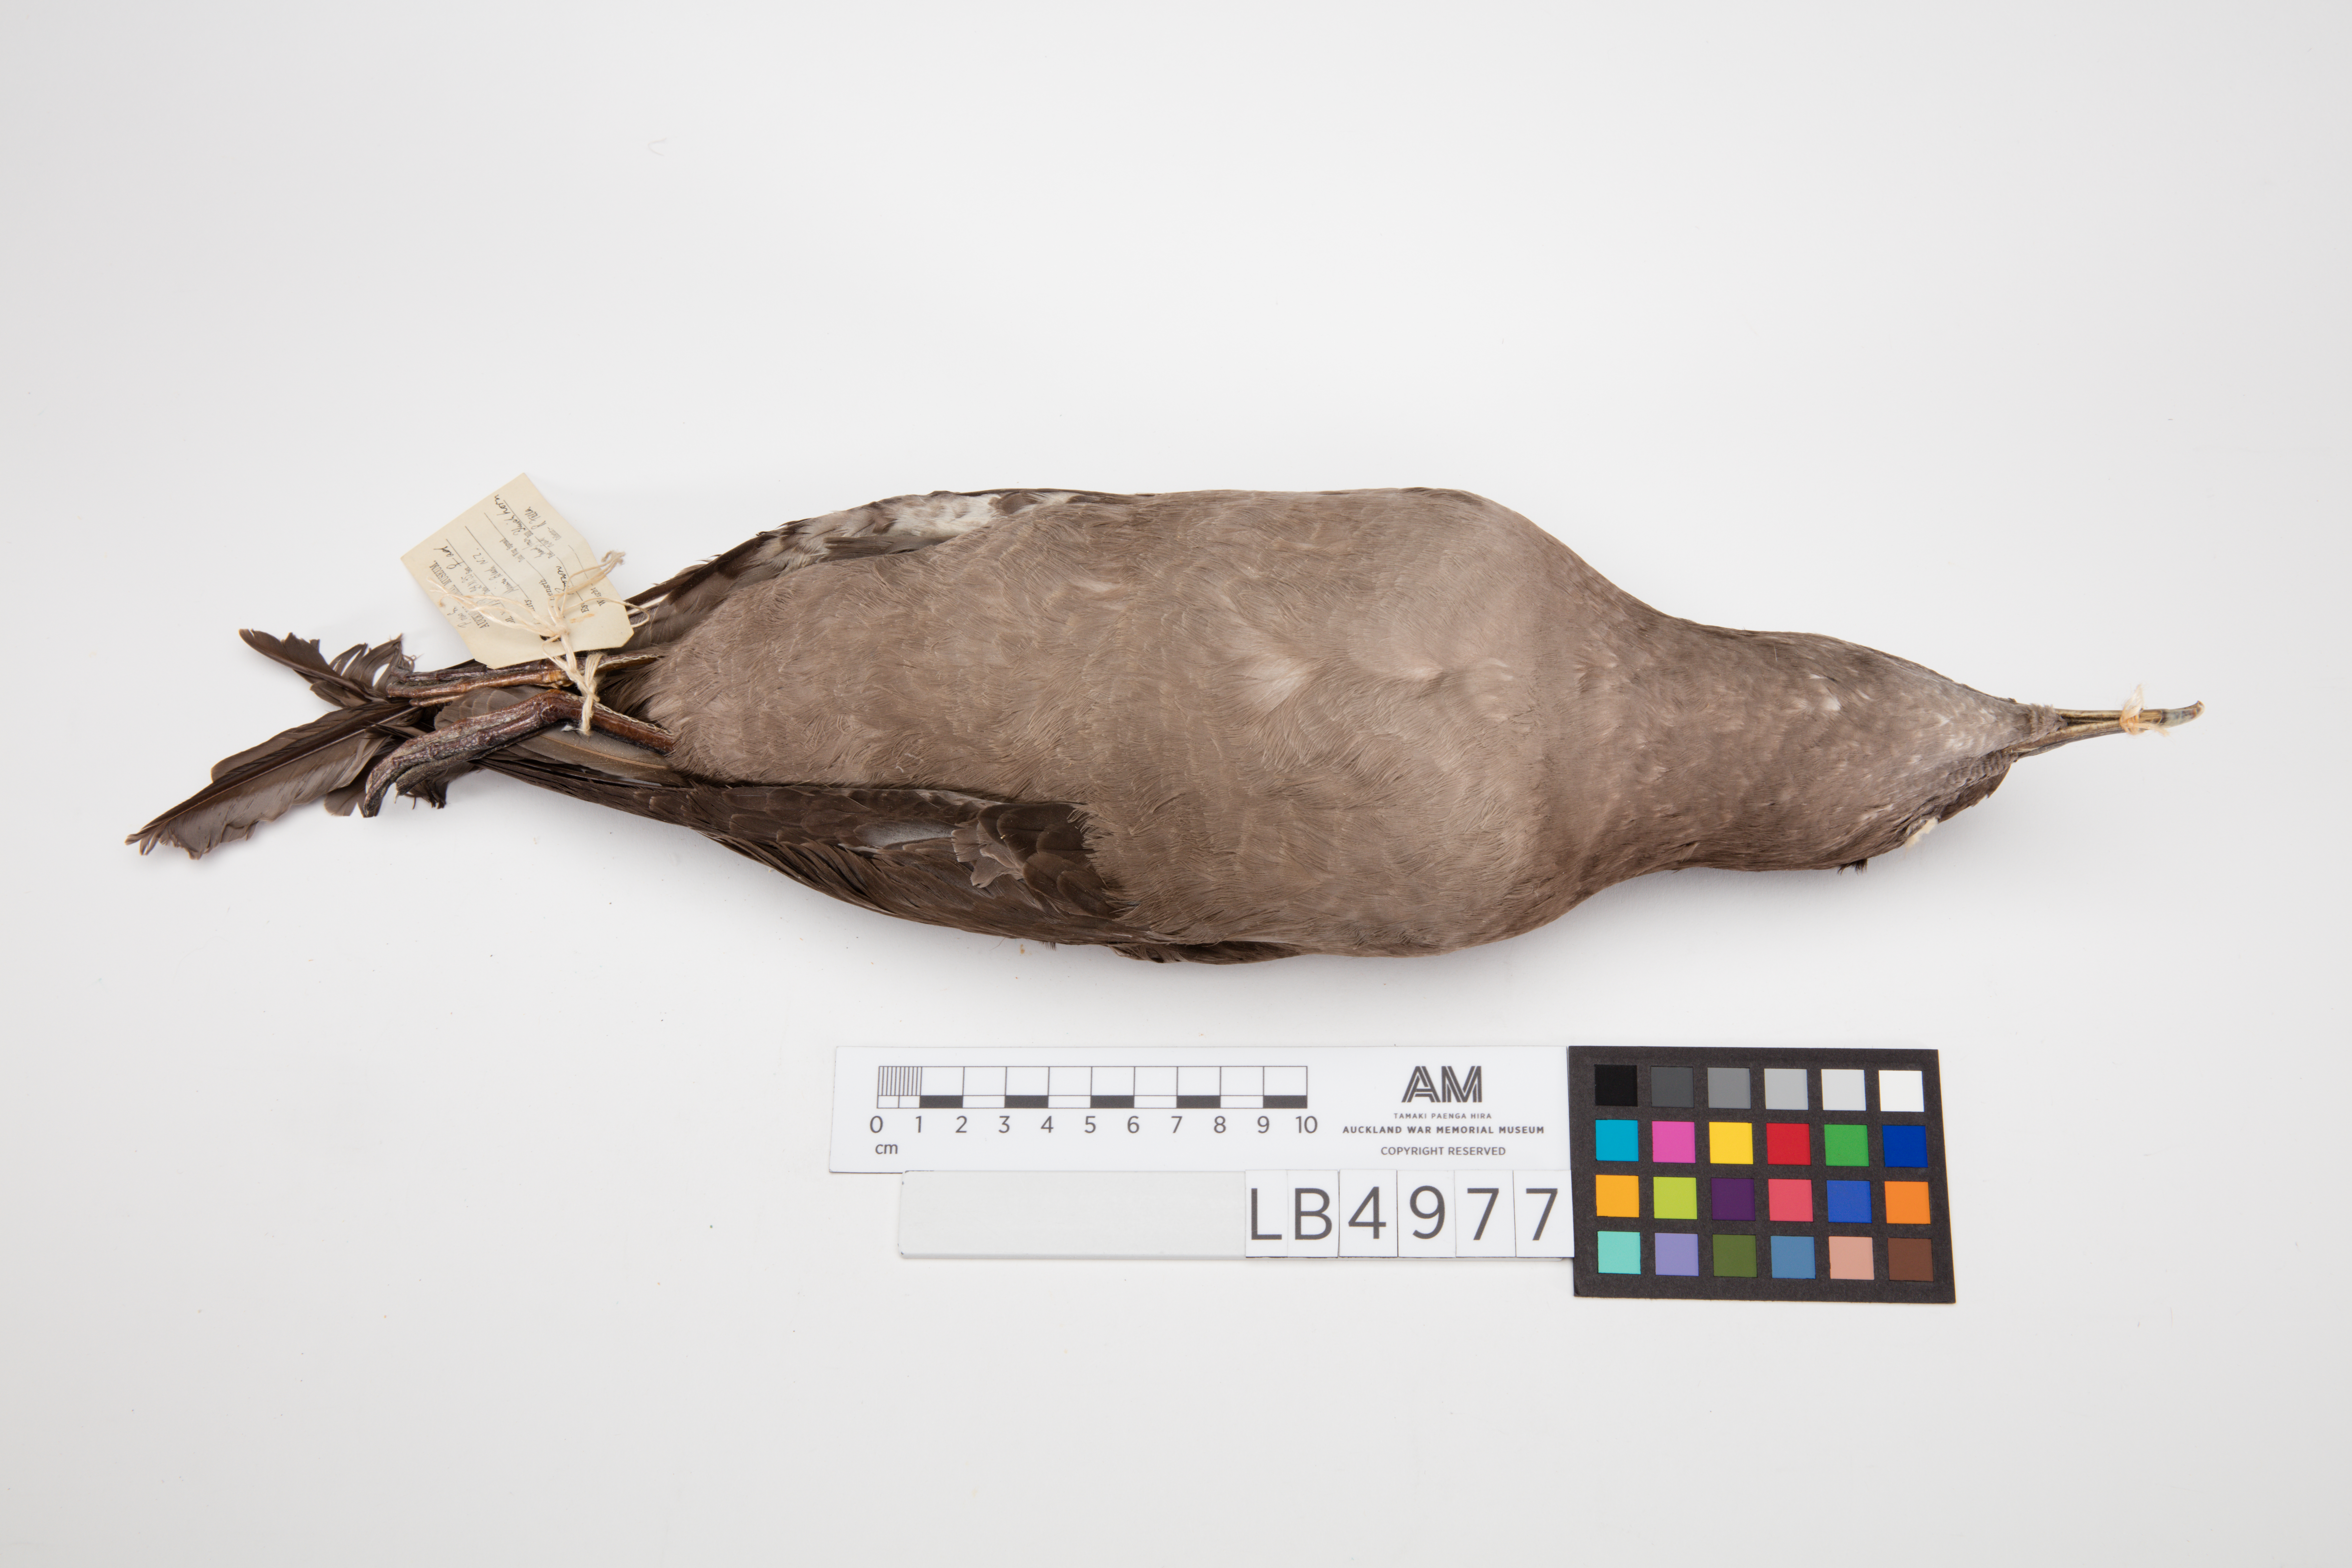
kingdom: Animalia
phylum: Chordata
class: Aves
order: Procellariiformes
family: Procellariidae
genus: Puffinus
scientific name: Puffinus griseus
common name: Sooty shearwater
